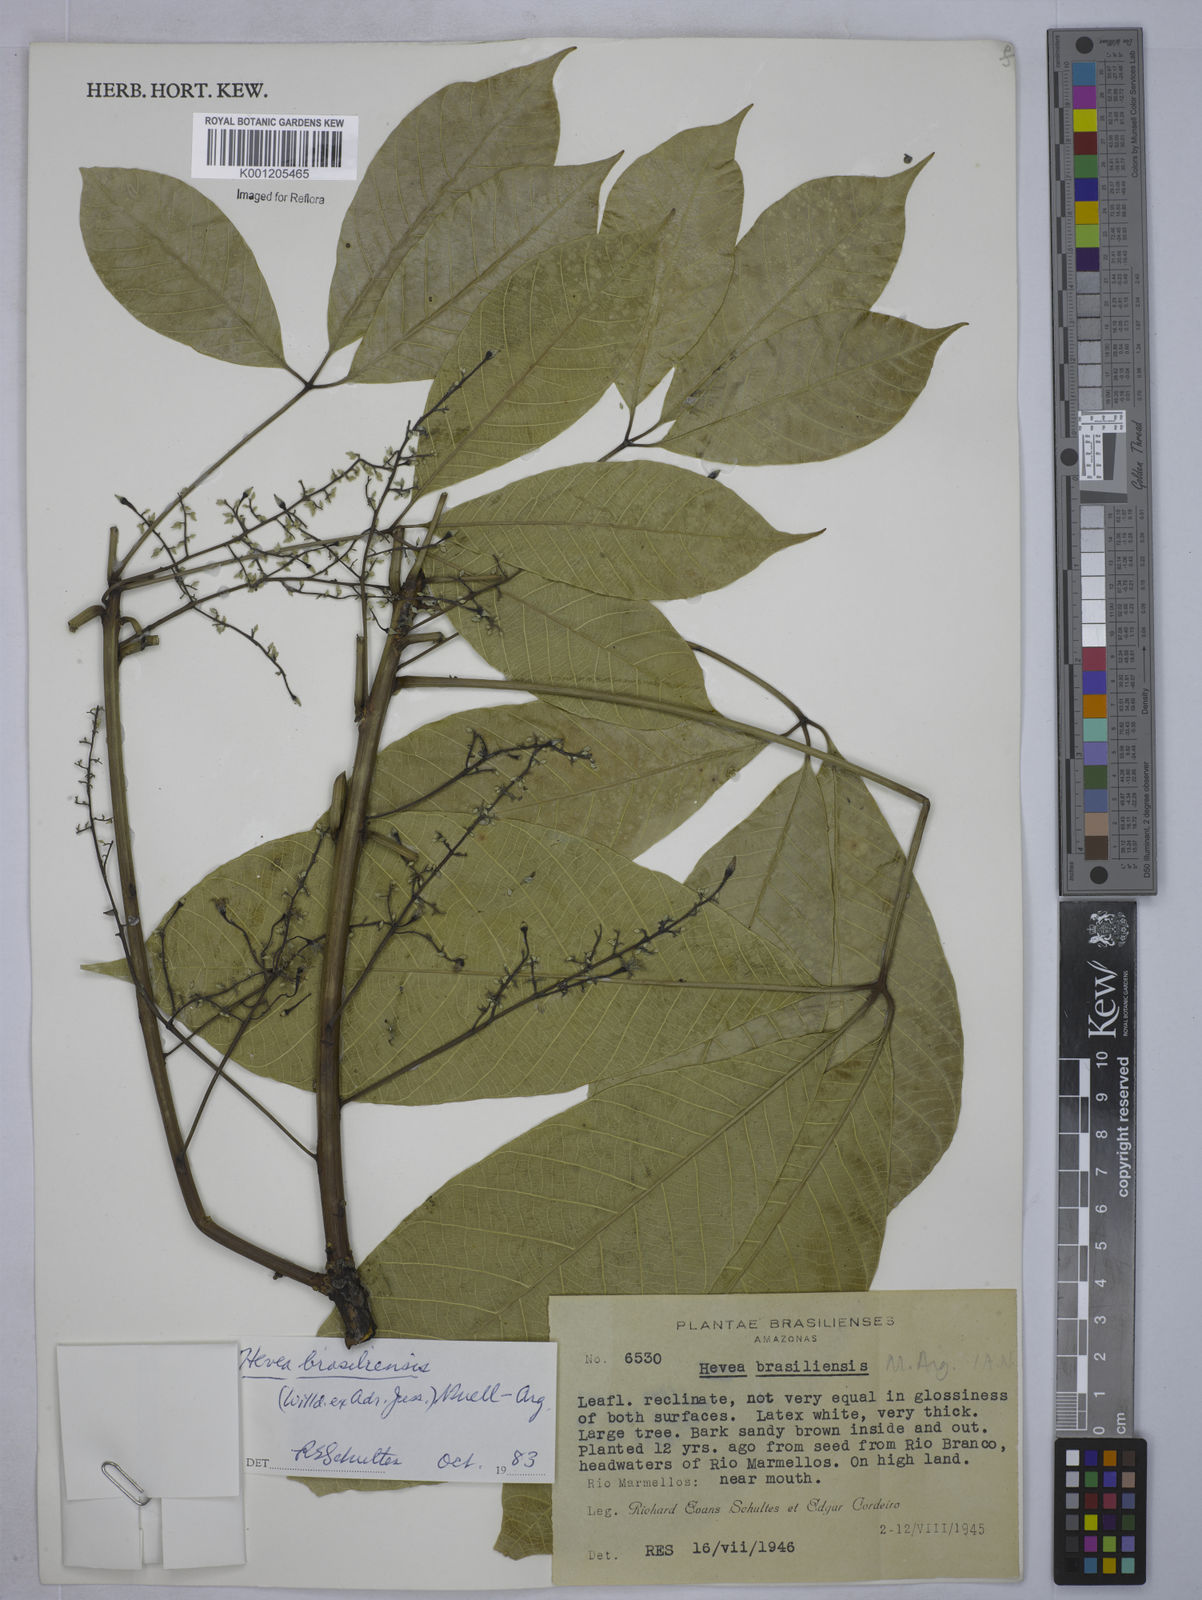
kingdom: Plantae
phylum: Tracheophyta
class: Magnoliopsida
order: Malpighiales
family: Euphorbiaceae
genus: Hevea
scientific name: Hevea
